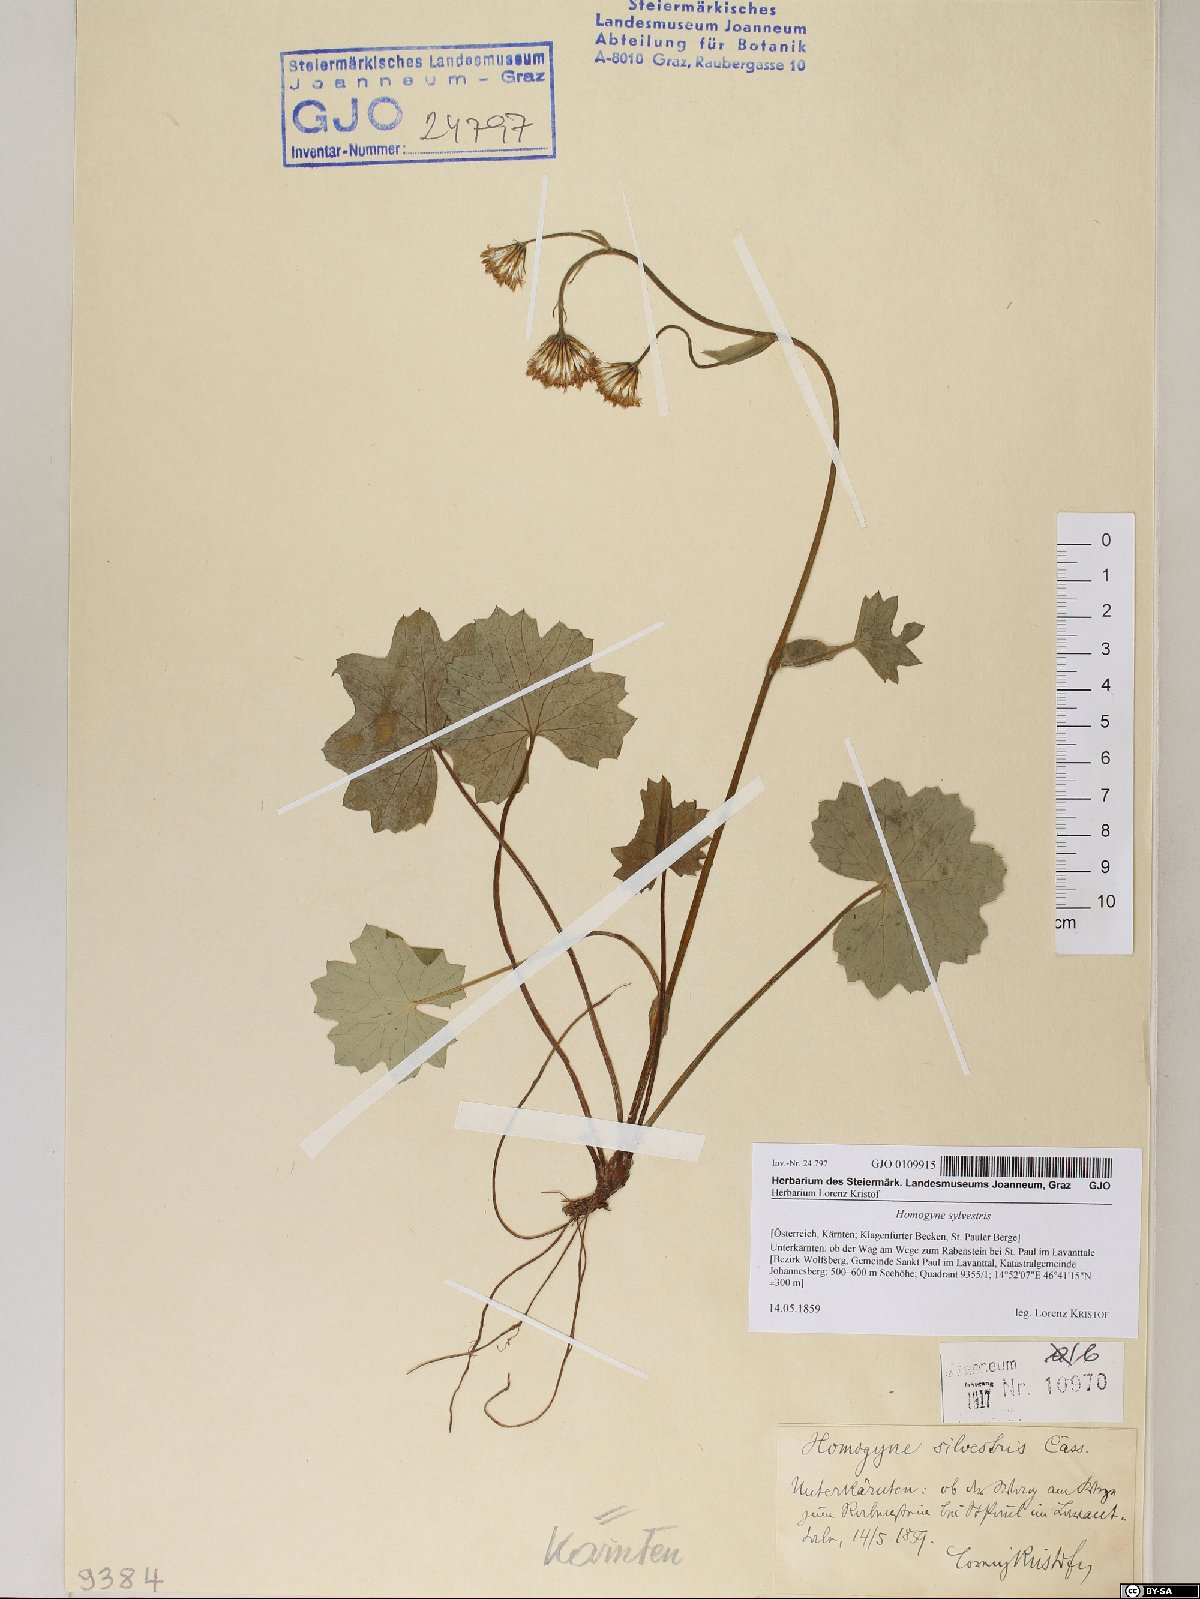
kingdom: Plantae
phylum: Tracheophyta
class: Magnoliopsida
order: Asterales
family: Asteraceae
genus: Homogyne
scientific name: Homogyne sylvestris
